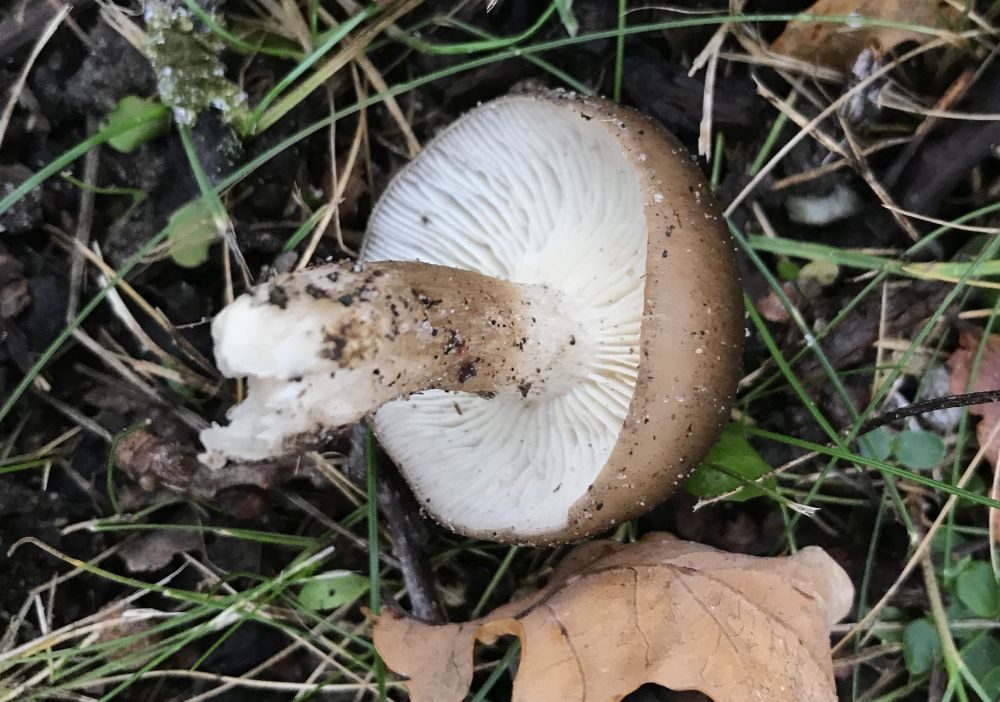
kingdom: Fungi
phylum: Basidiomycota
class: Agaricomycetes
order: Agaricales
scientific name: Agaricales
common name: champignonordenen
